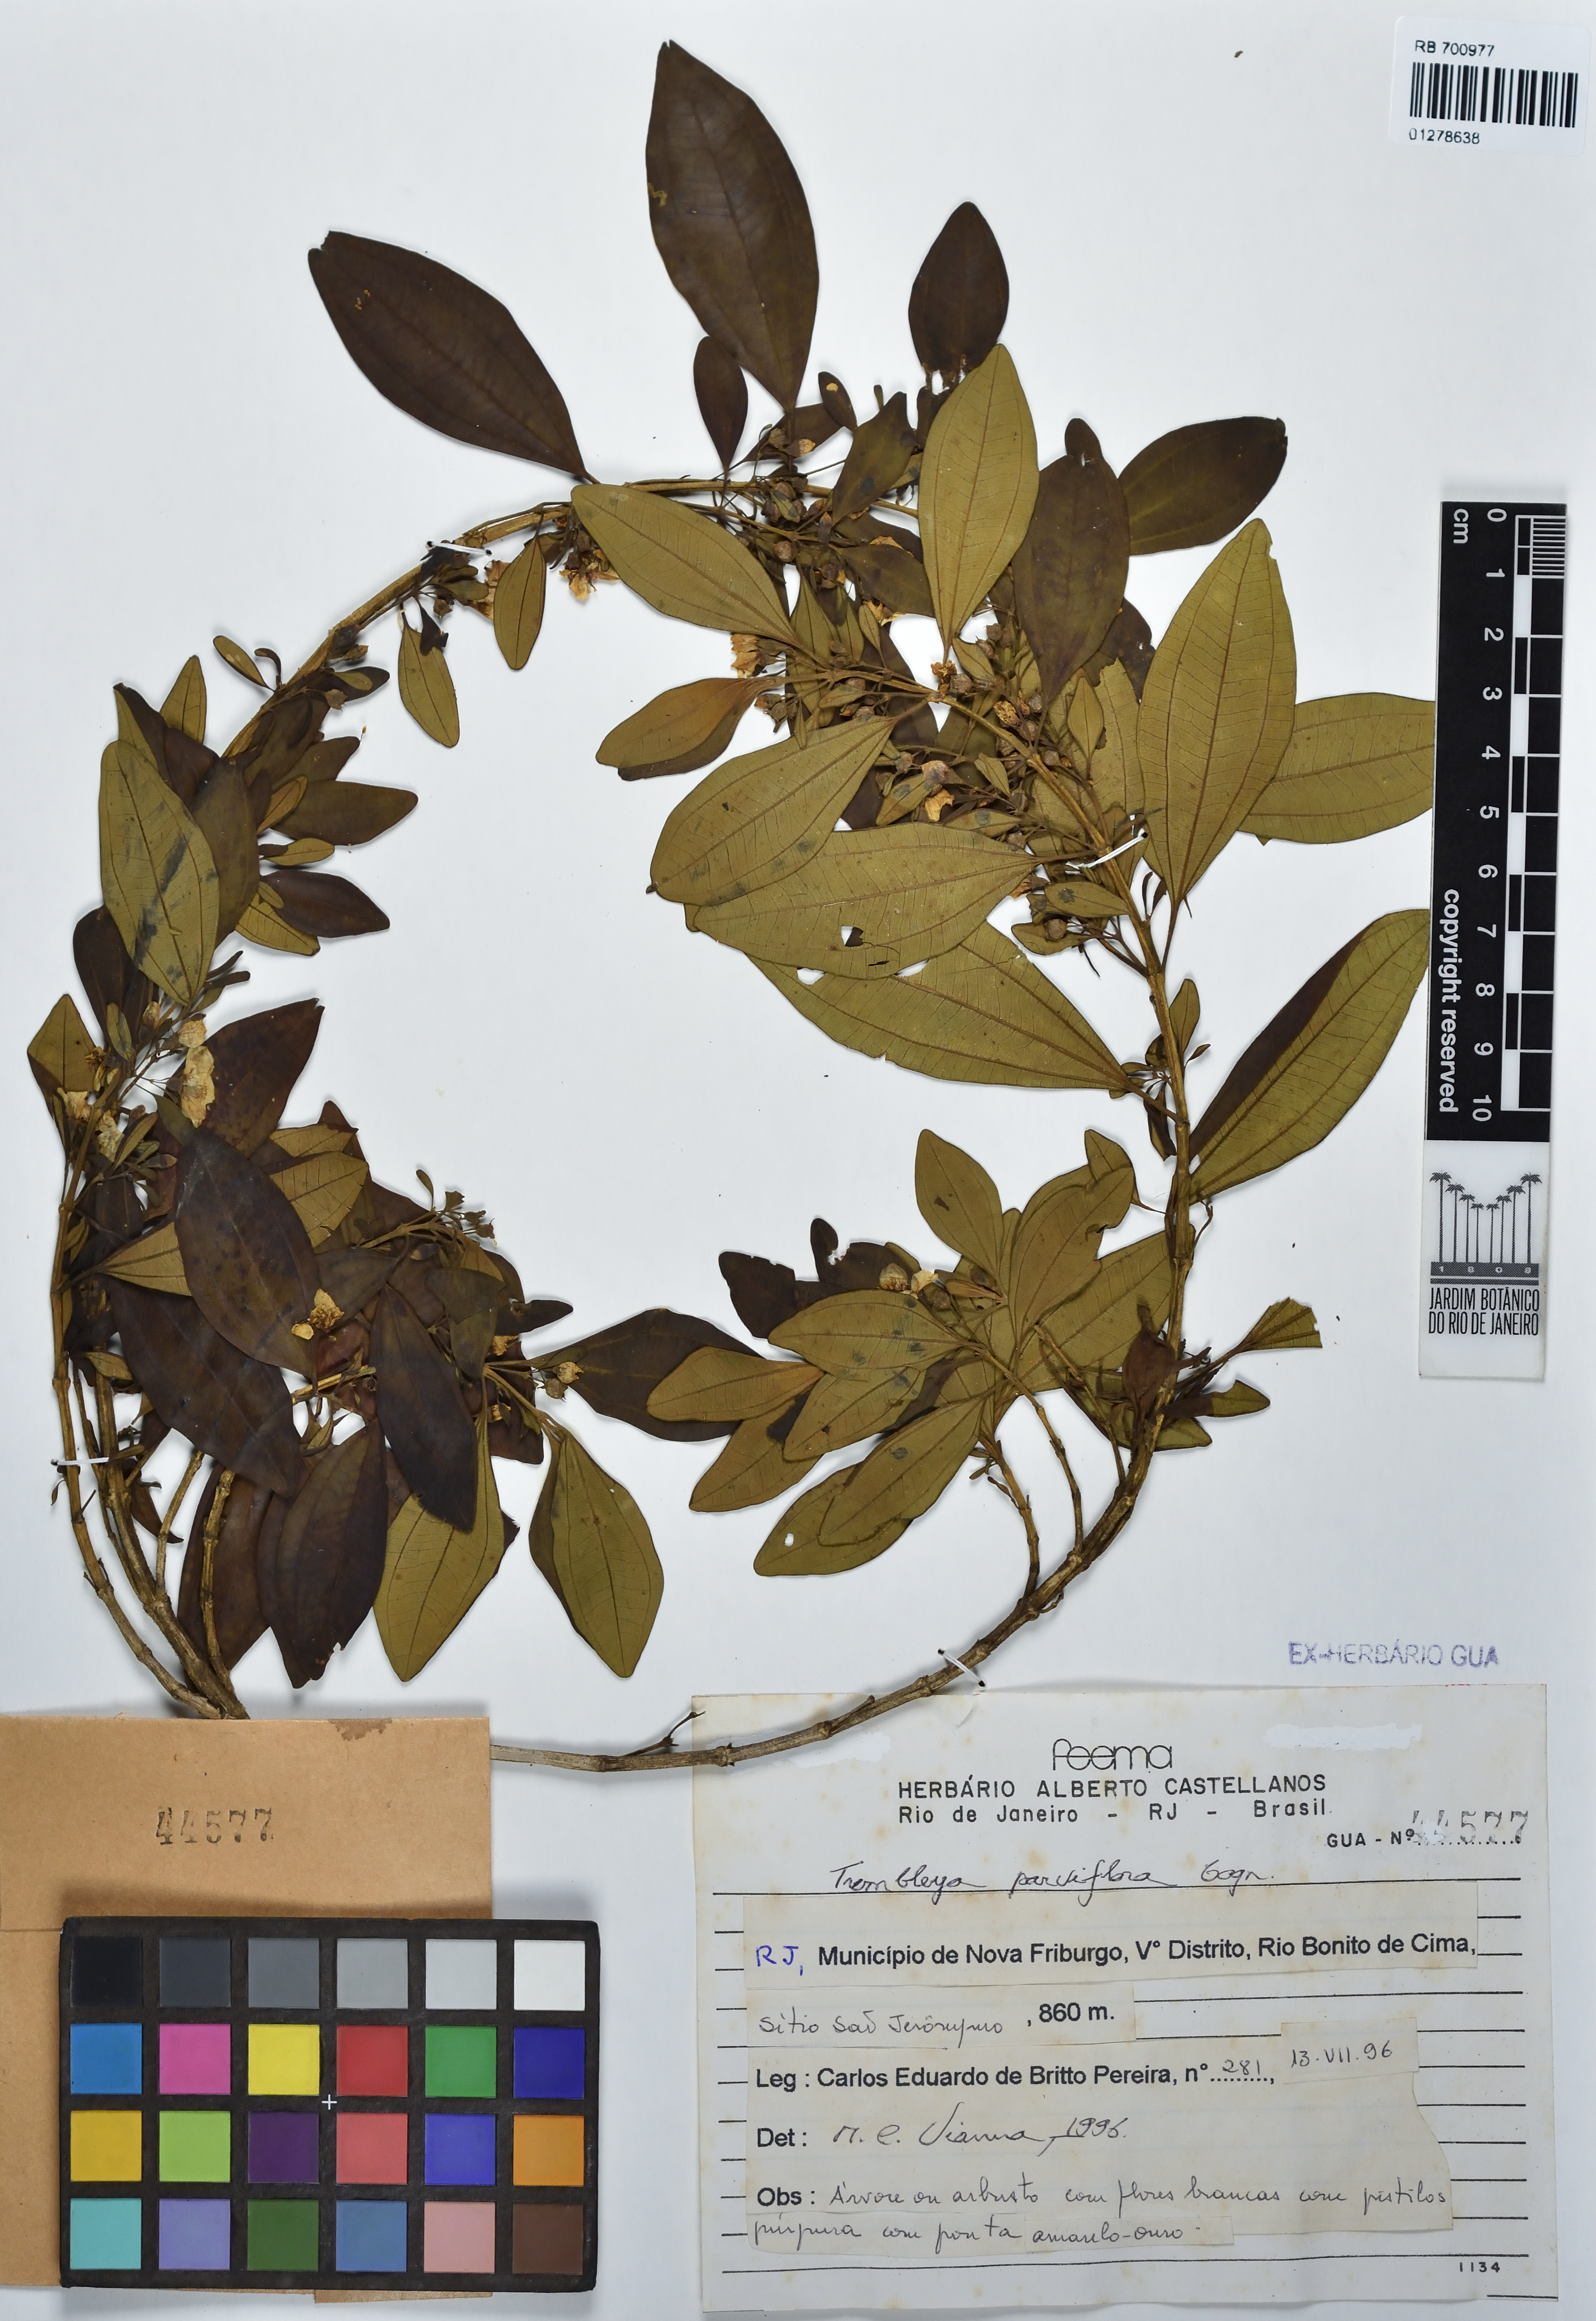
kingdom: Plantae
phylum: Tracheophyta
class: Magnoliopsida
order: Myrtales
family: Melastomataceae
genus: Microlicia
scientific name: Microlicia parviflora
